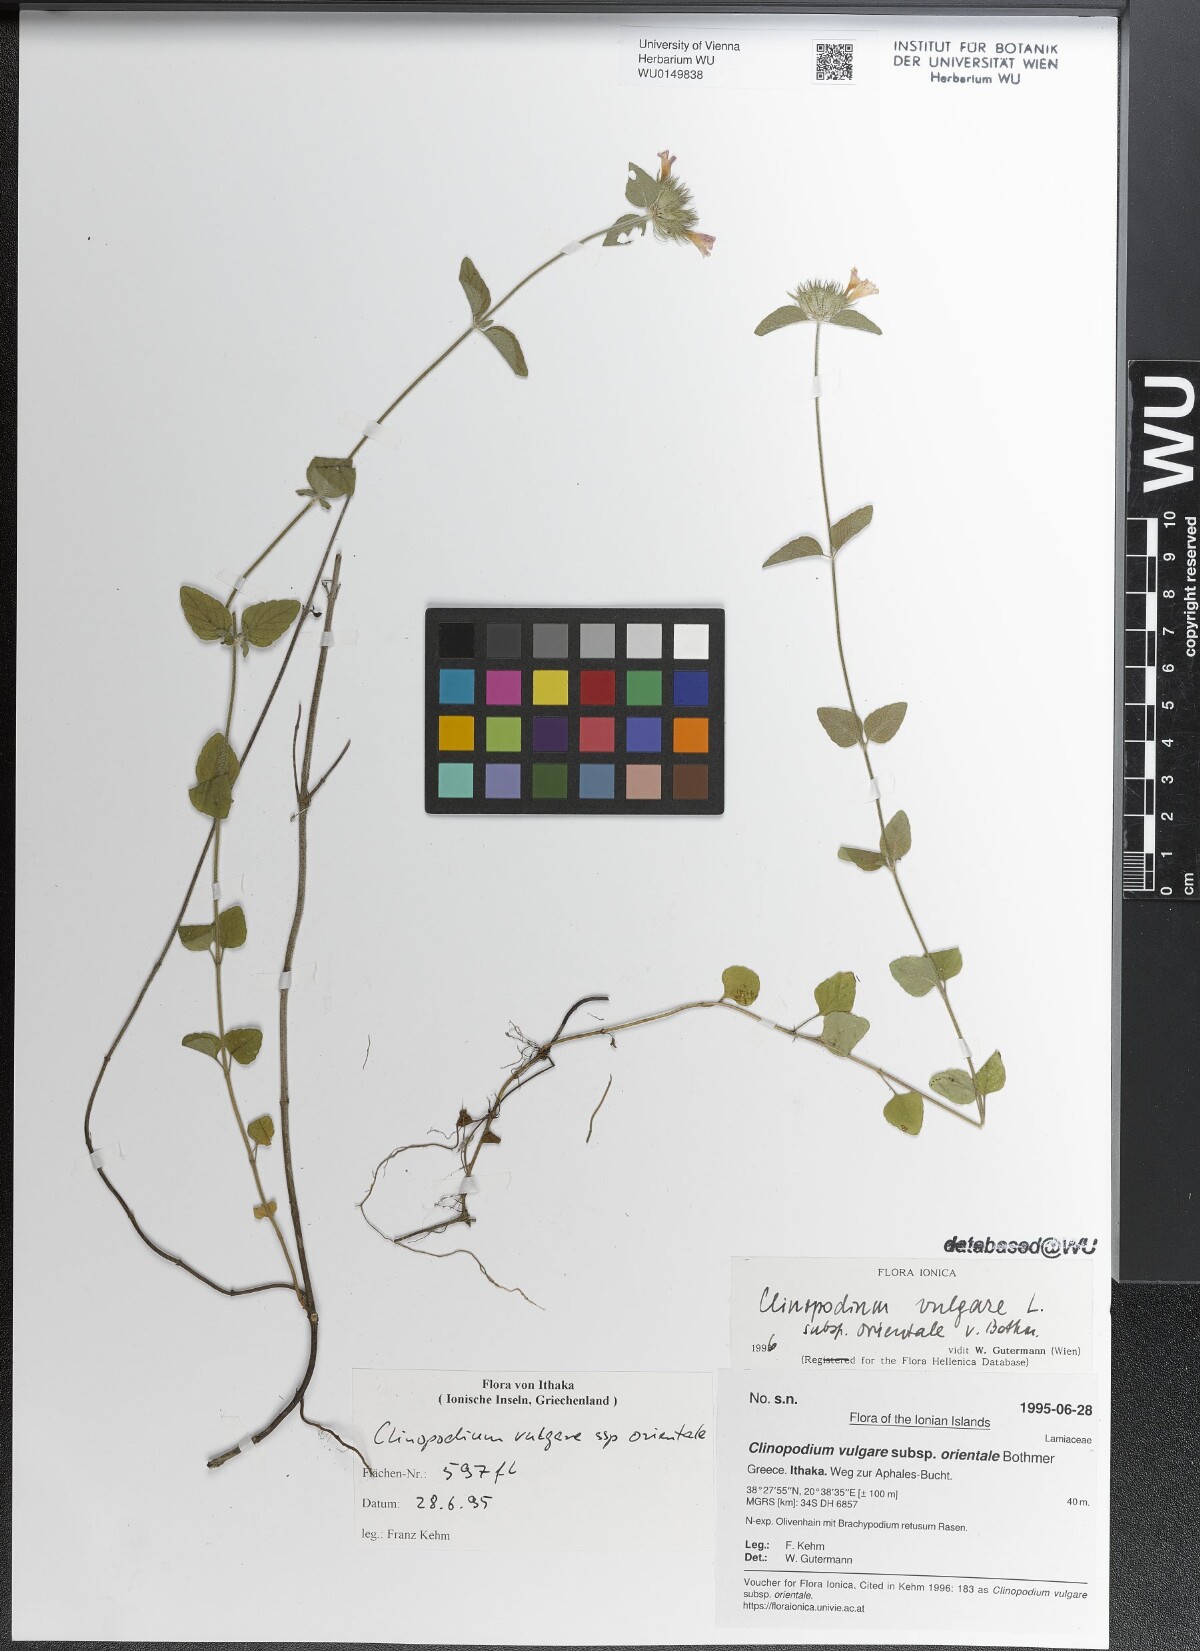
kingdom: Plantae
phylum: Tracheophyta
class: Magnoliopsida
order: Lamiales
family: Lamiaceae
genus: Clinopodium
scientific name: Clinopodium vulgare
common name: Wild basil
